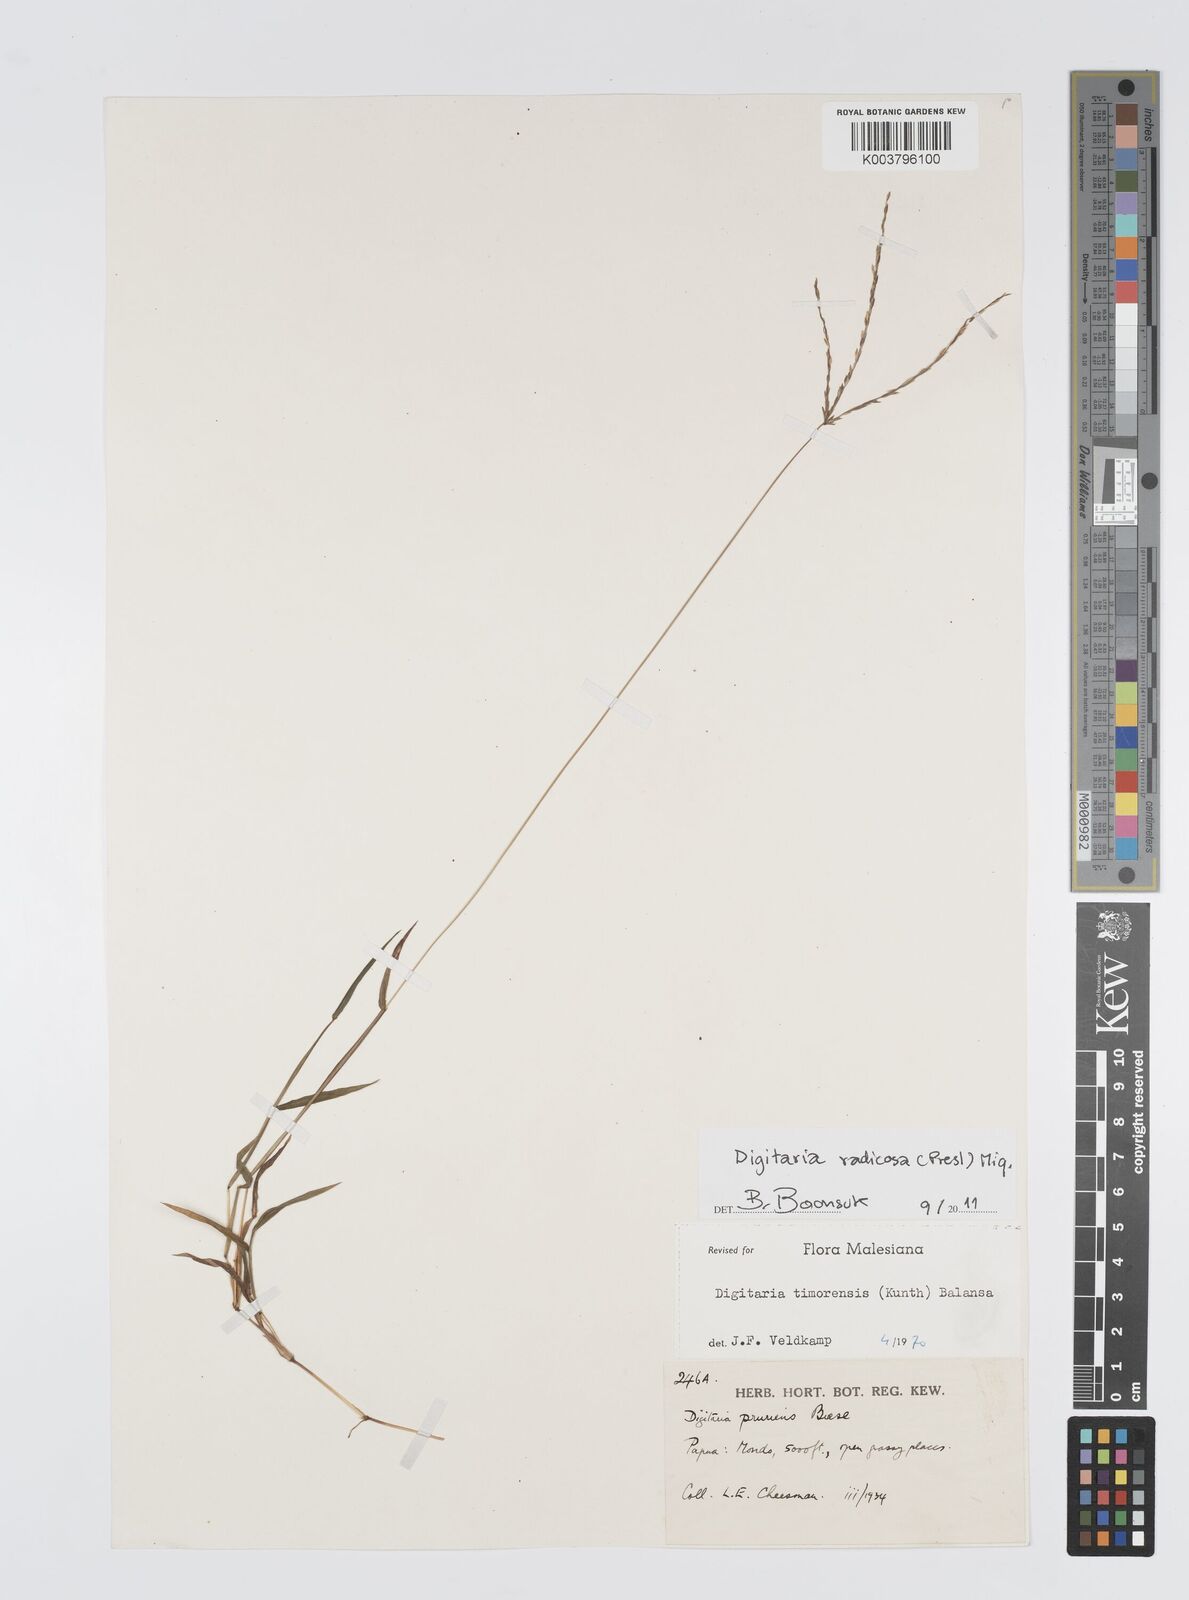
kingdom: Plantae
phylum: Tracheophyta
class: Liliopsida
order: Poales
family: Poaceae
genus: Digitaria
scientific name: Digitaria radicosa
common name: Trailing crabgrass
